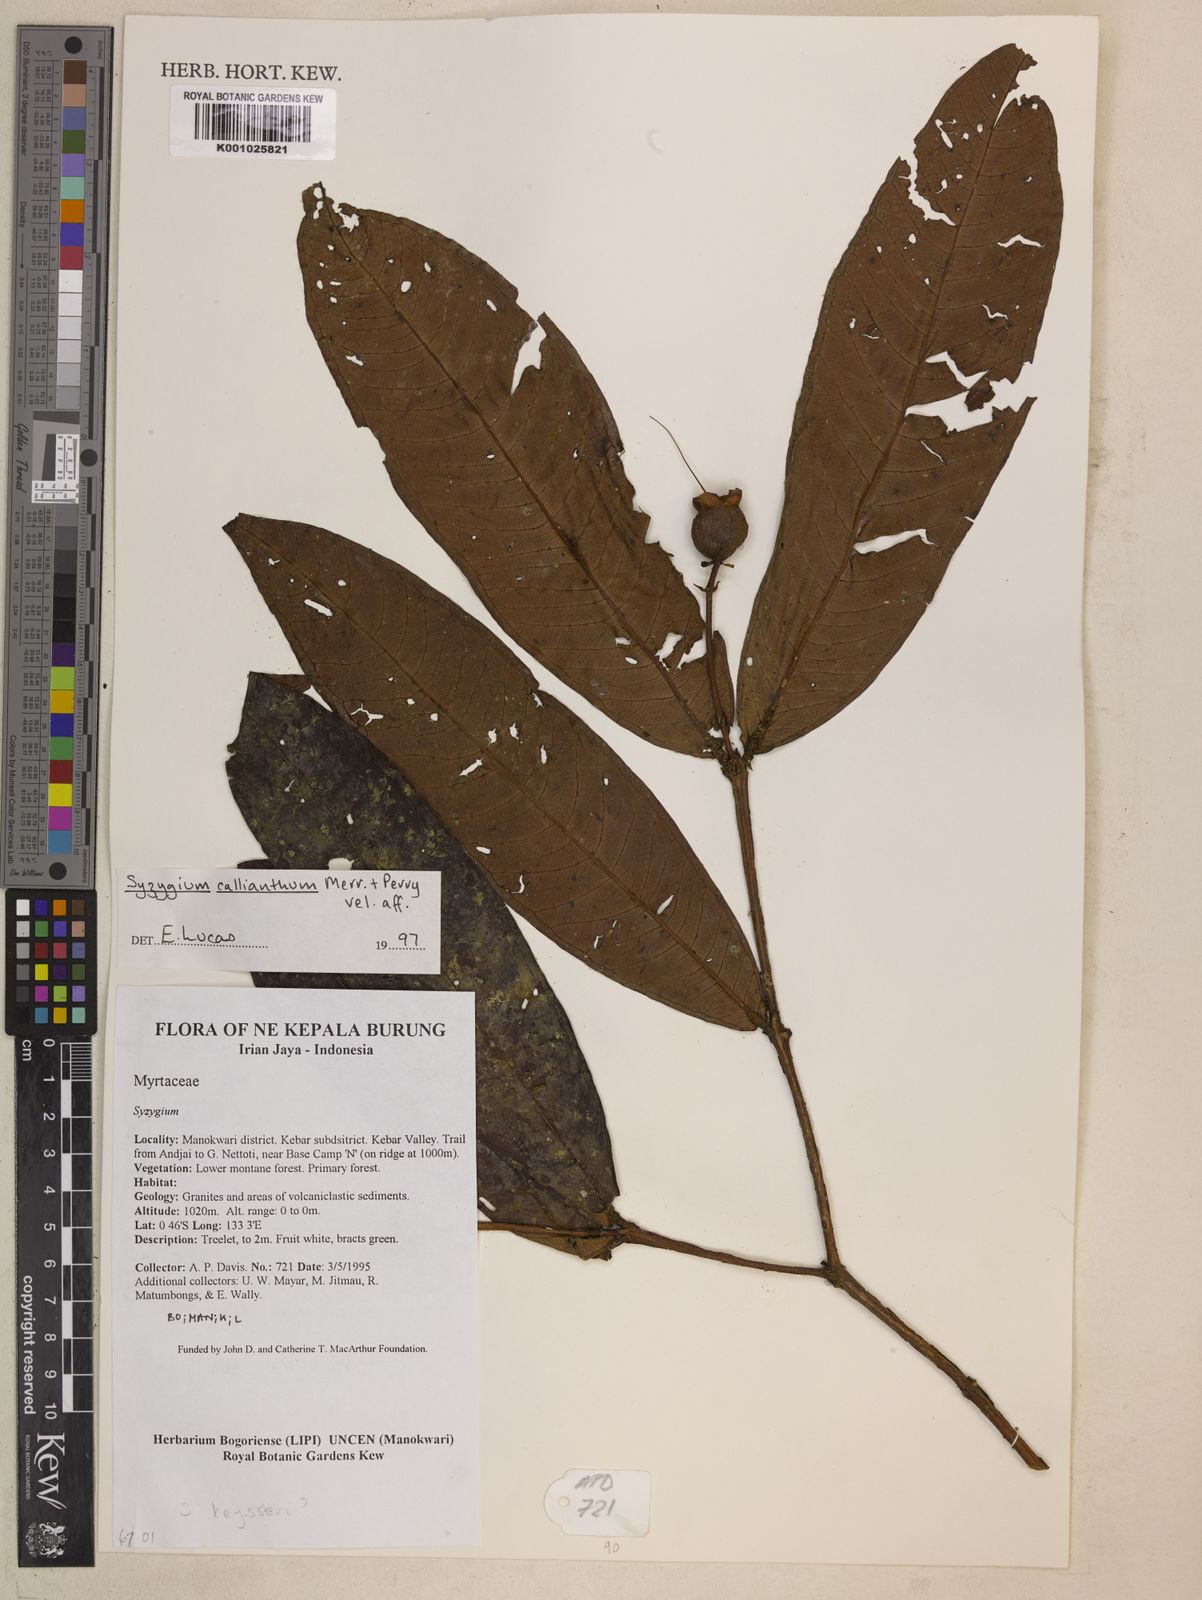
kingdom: Plantae
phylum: Tracheophyta
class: Magnoliopsida
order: Myrtales
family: Myrtaceae
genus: Syzygium
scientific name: Syzygium callianthum
